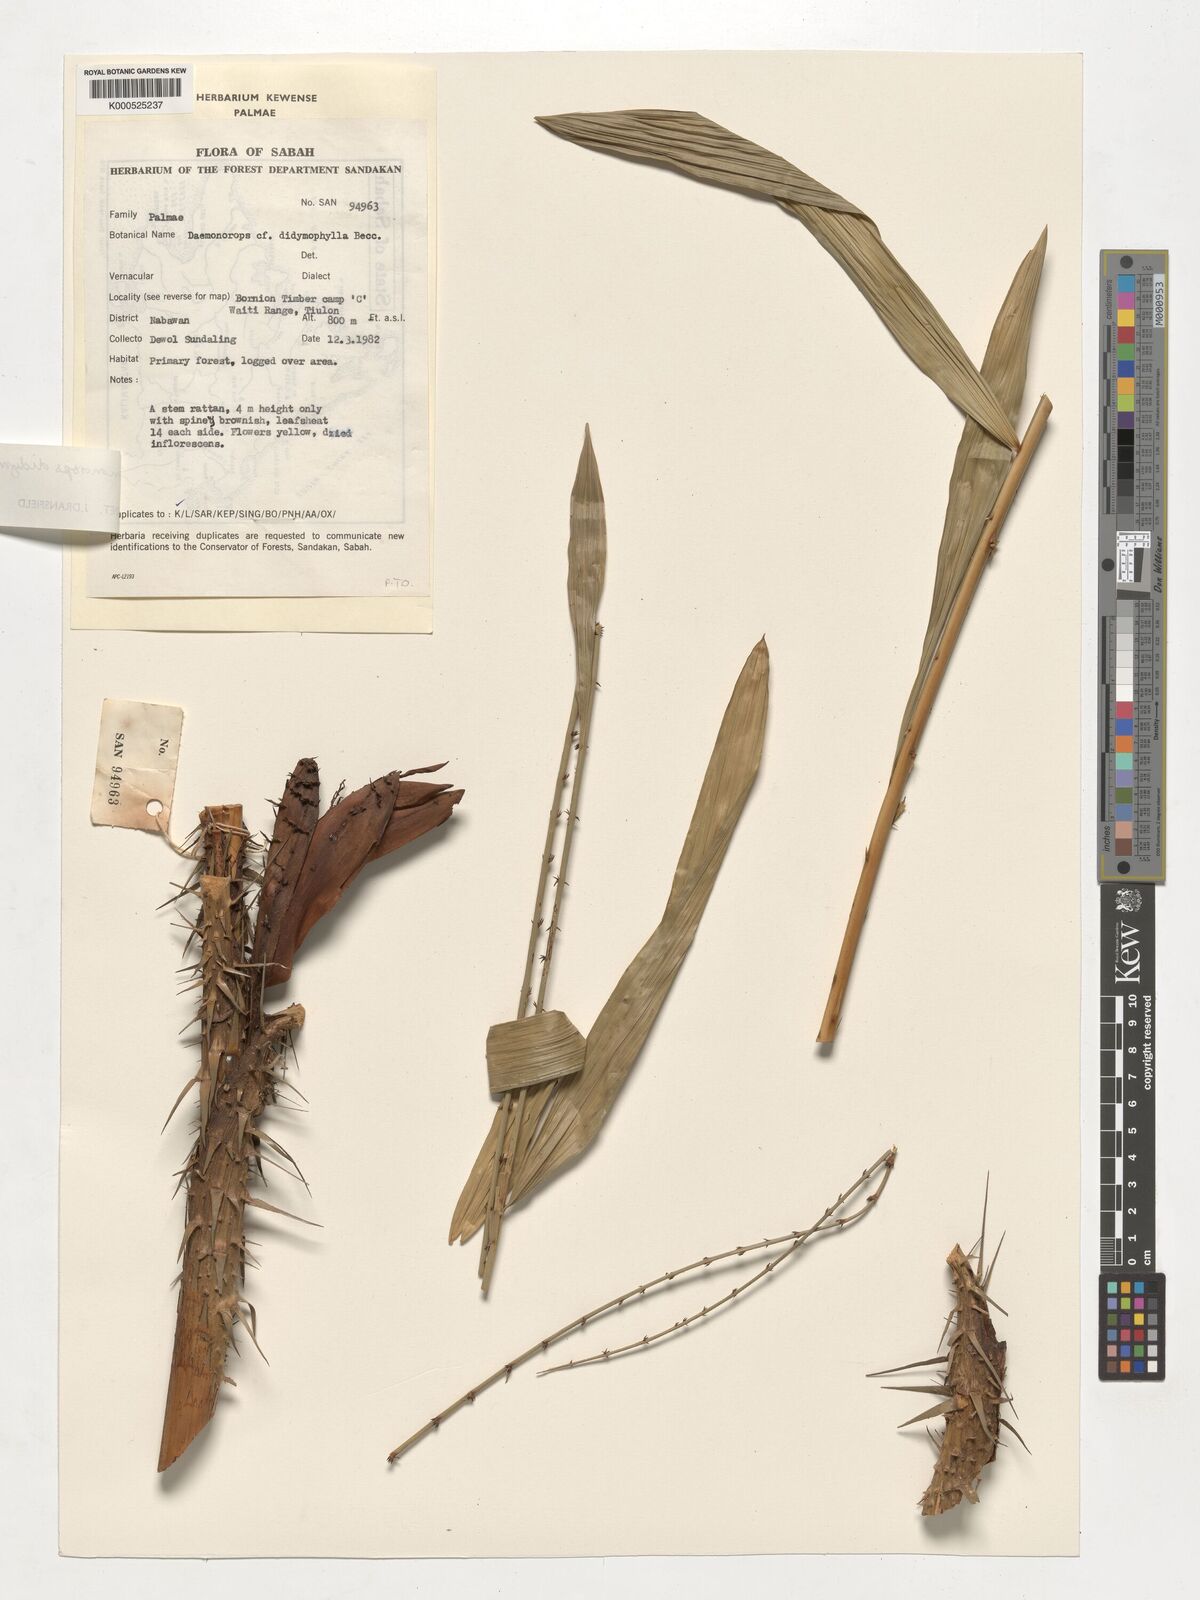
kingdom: Plantae
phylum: Tracheophyta
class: Liliopsida
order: Arecales
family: Arecaceae
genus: Calamus
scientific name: Calamus gracilipes
